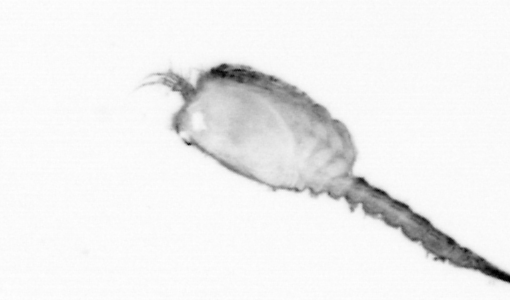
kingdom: Animalia
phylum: Arthropoda
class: Copepoda
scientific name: Copepoda
